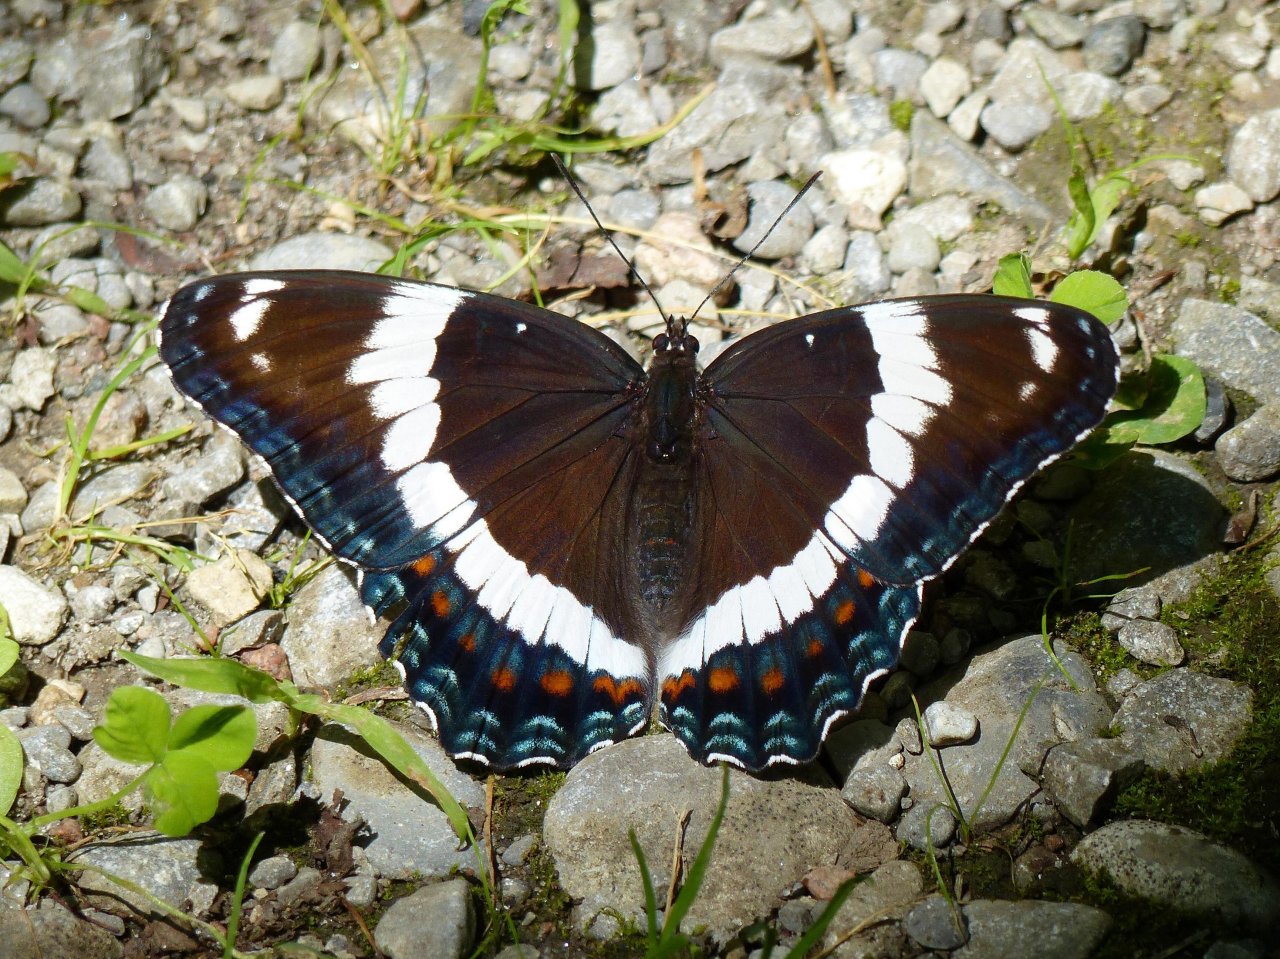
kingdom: Animalia
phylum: Arthropoda
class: Insecta
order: Lepidoptera
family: Nymphalidae
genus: Limenitis
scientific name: Limenitis arthemis
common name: Red-spotted Admiral
